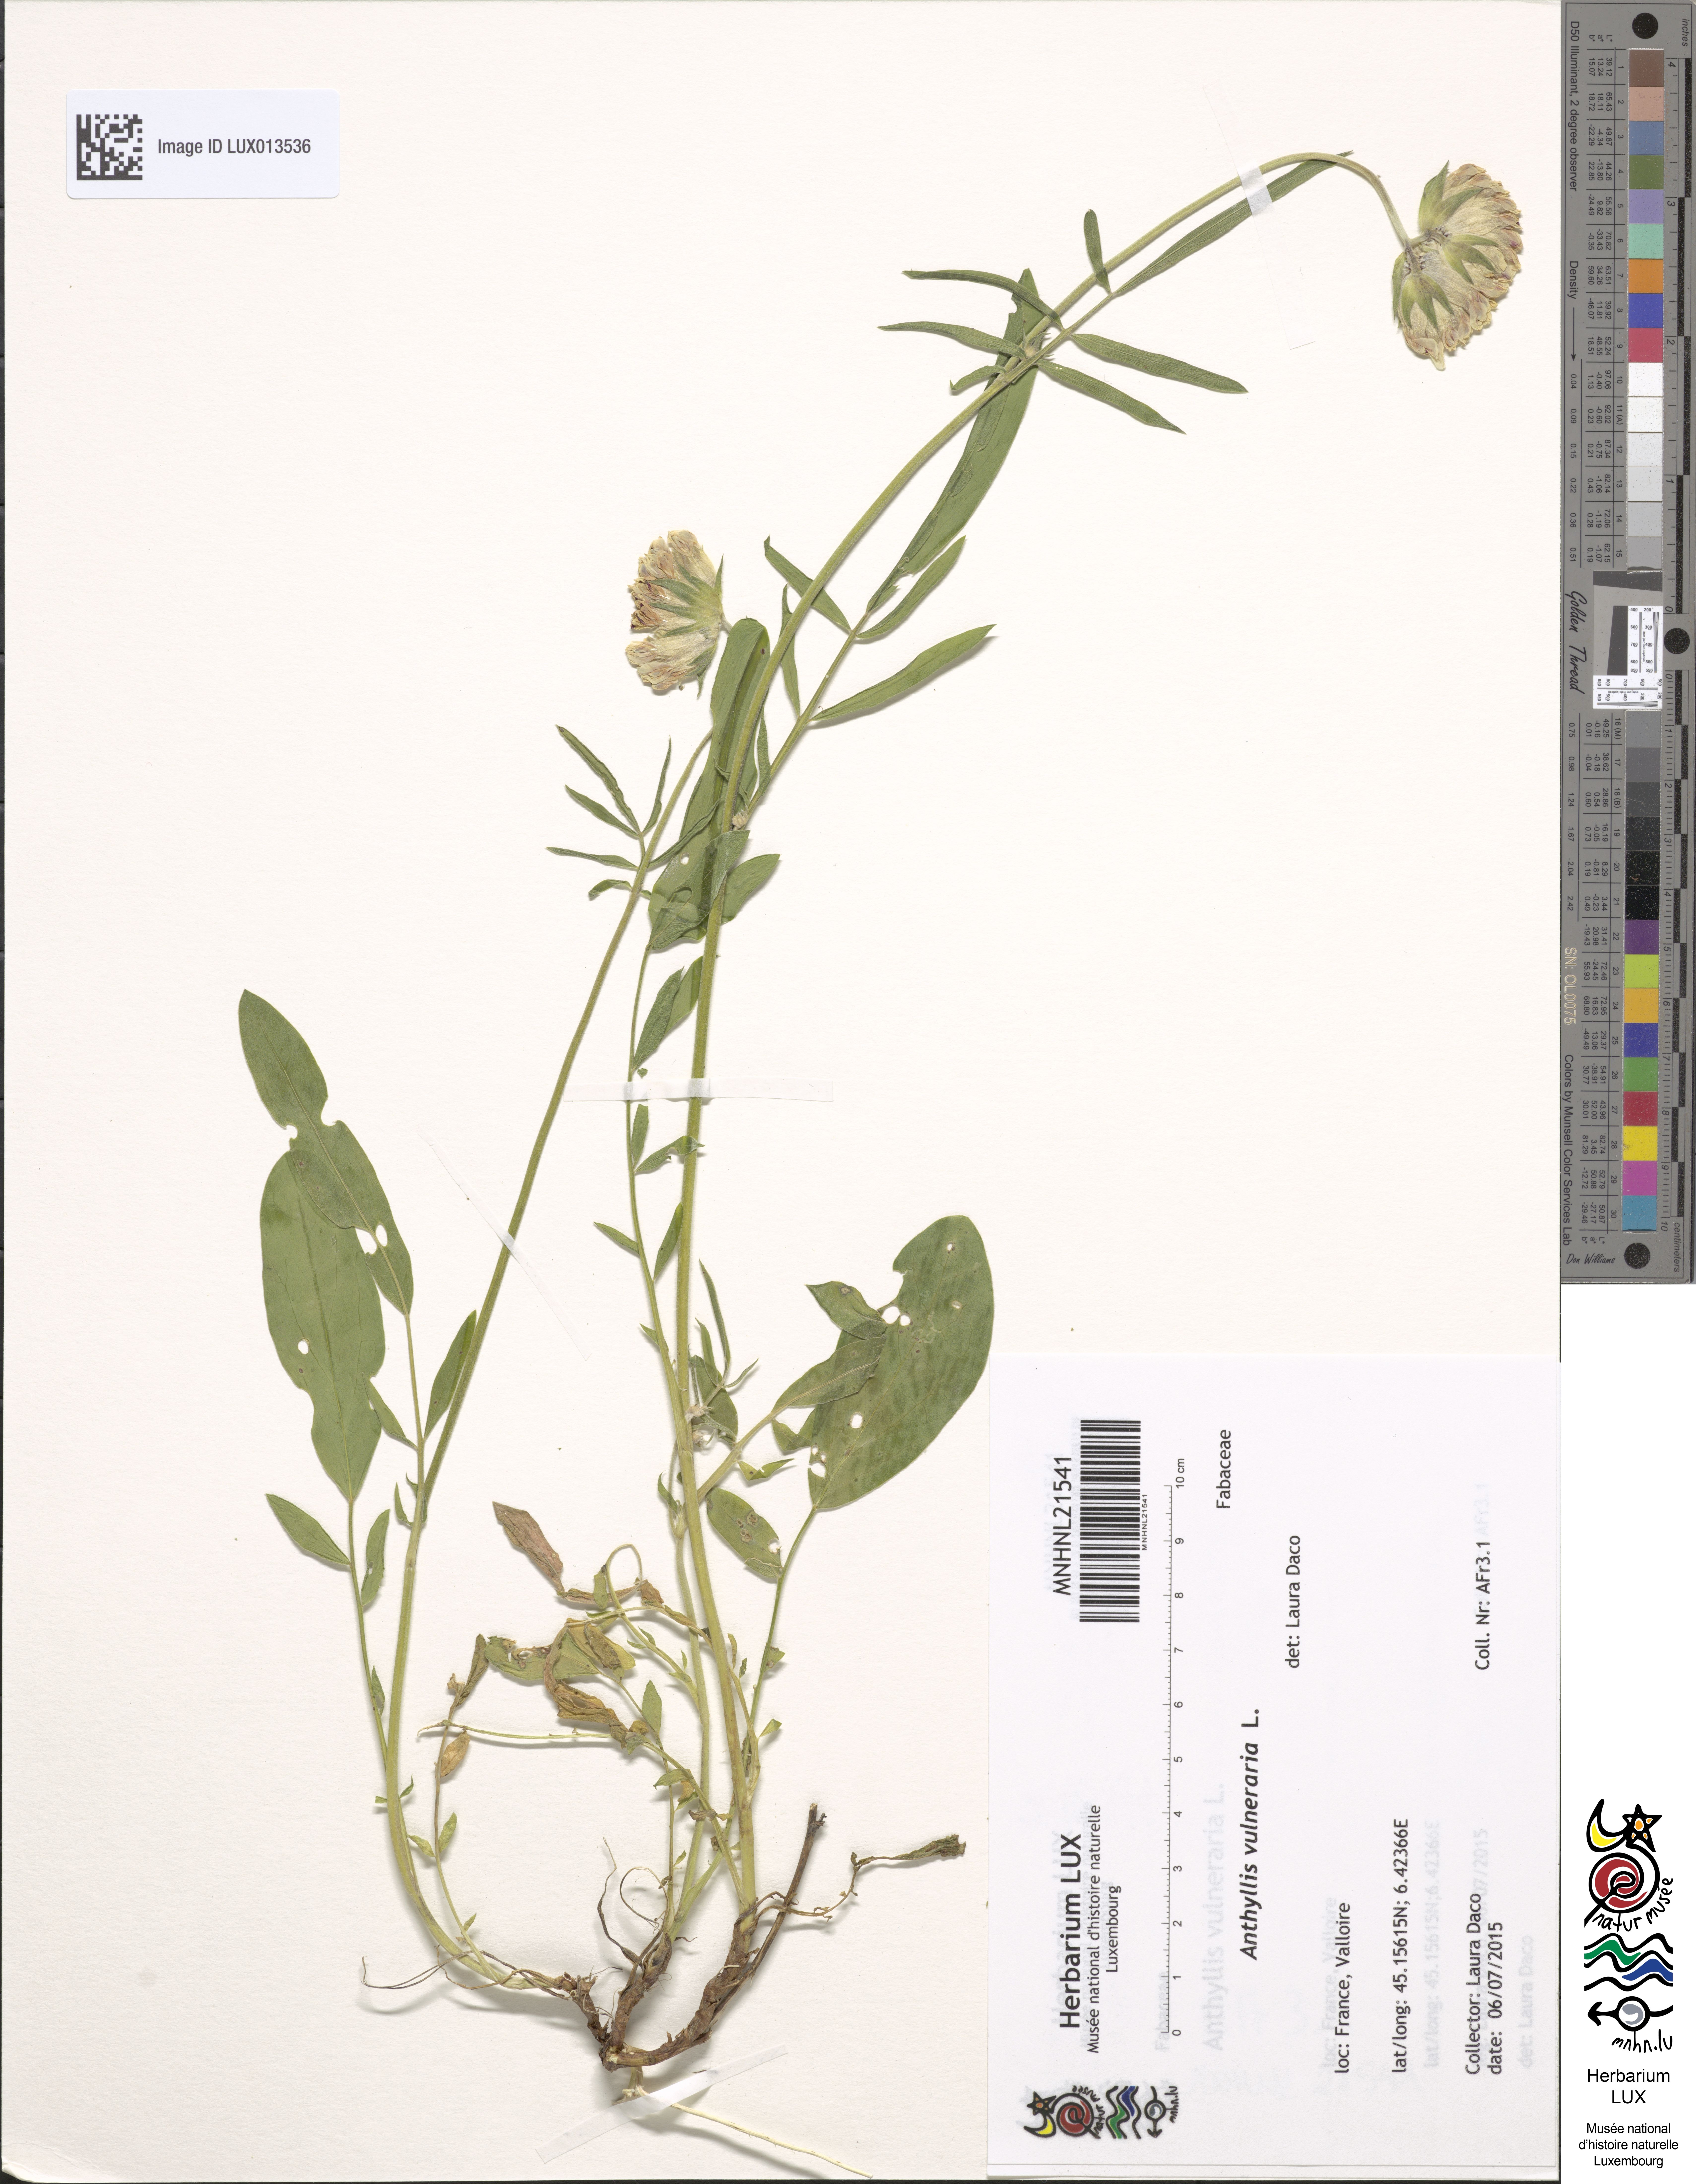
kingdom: Plantae
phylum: Tracheophyta
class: Magnoliopsida
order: Fabales
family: Fabaceae
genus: Anthyllis
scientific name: Anthyllis vulneraria
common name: Kidney vetch
